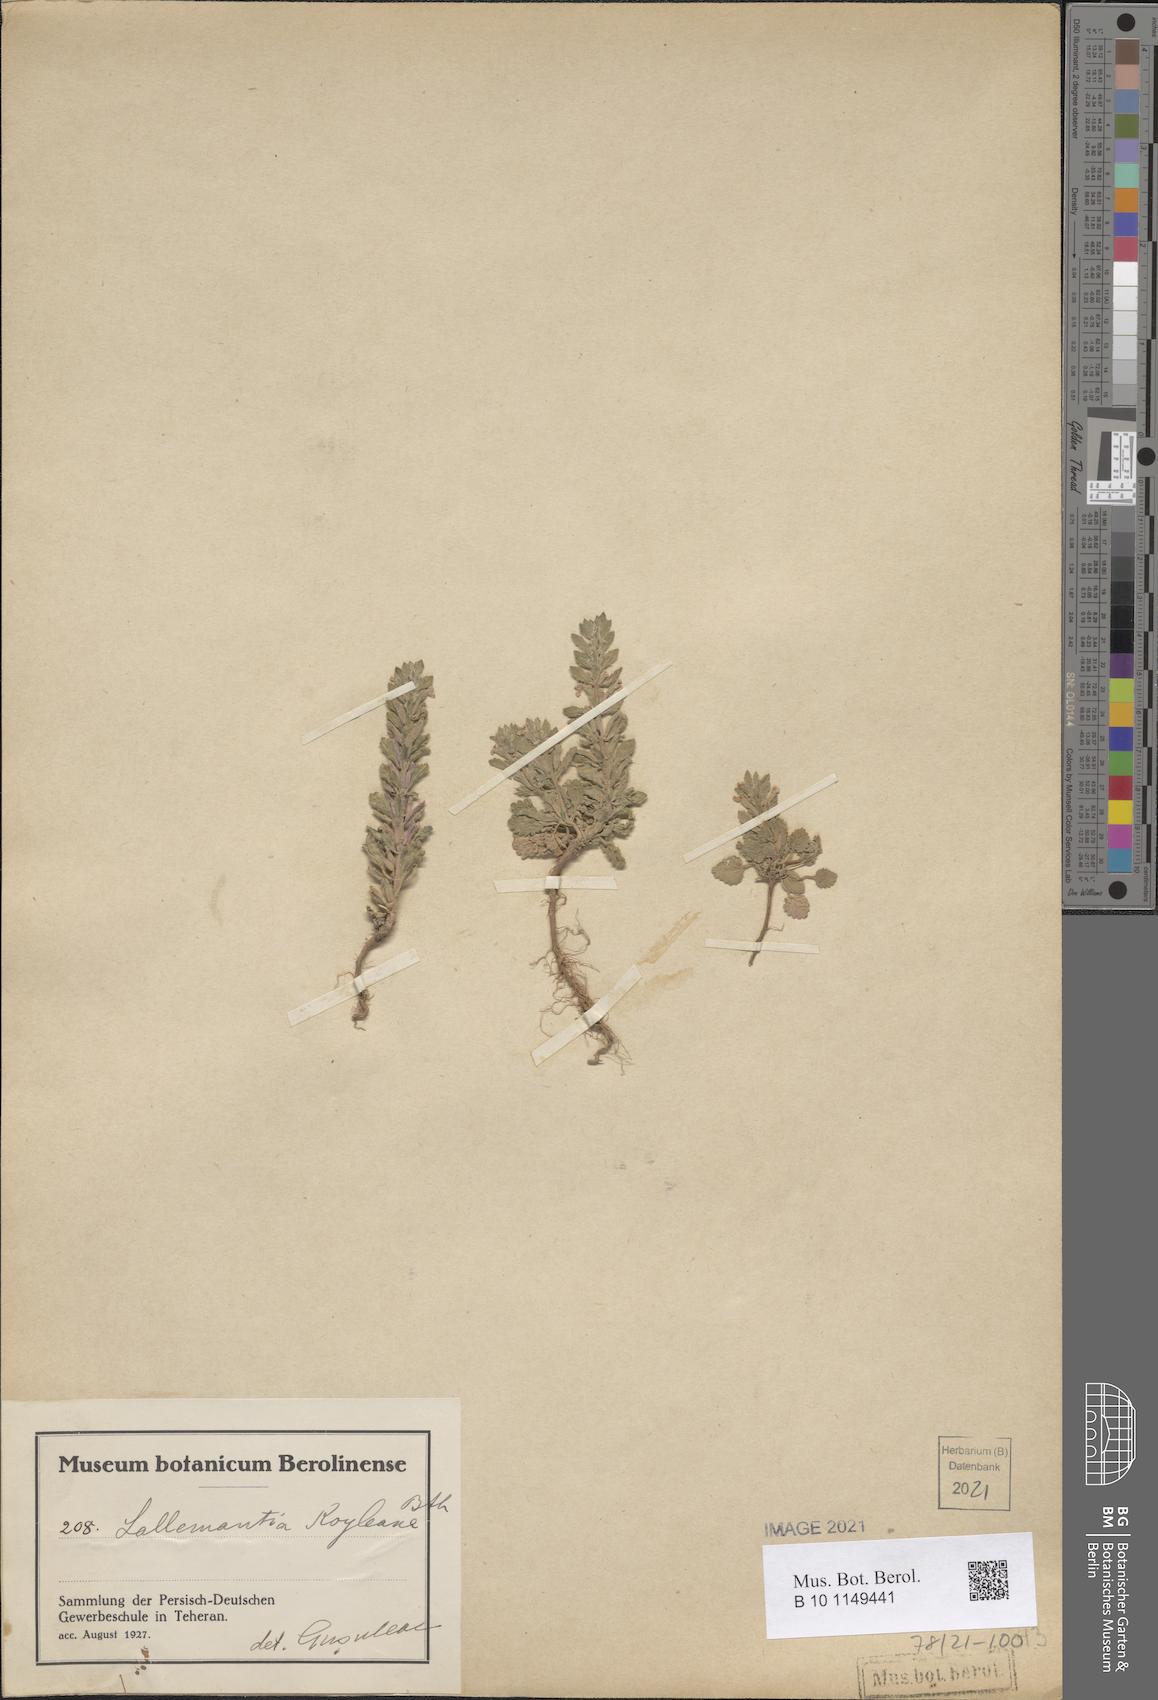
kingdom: Plantae
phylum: Tracheophyta
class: Magnoliopsida
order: Lamiales
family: Lamiaceae
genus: Lallemantia
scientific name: Lallemantia royleana
